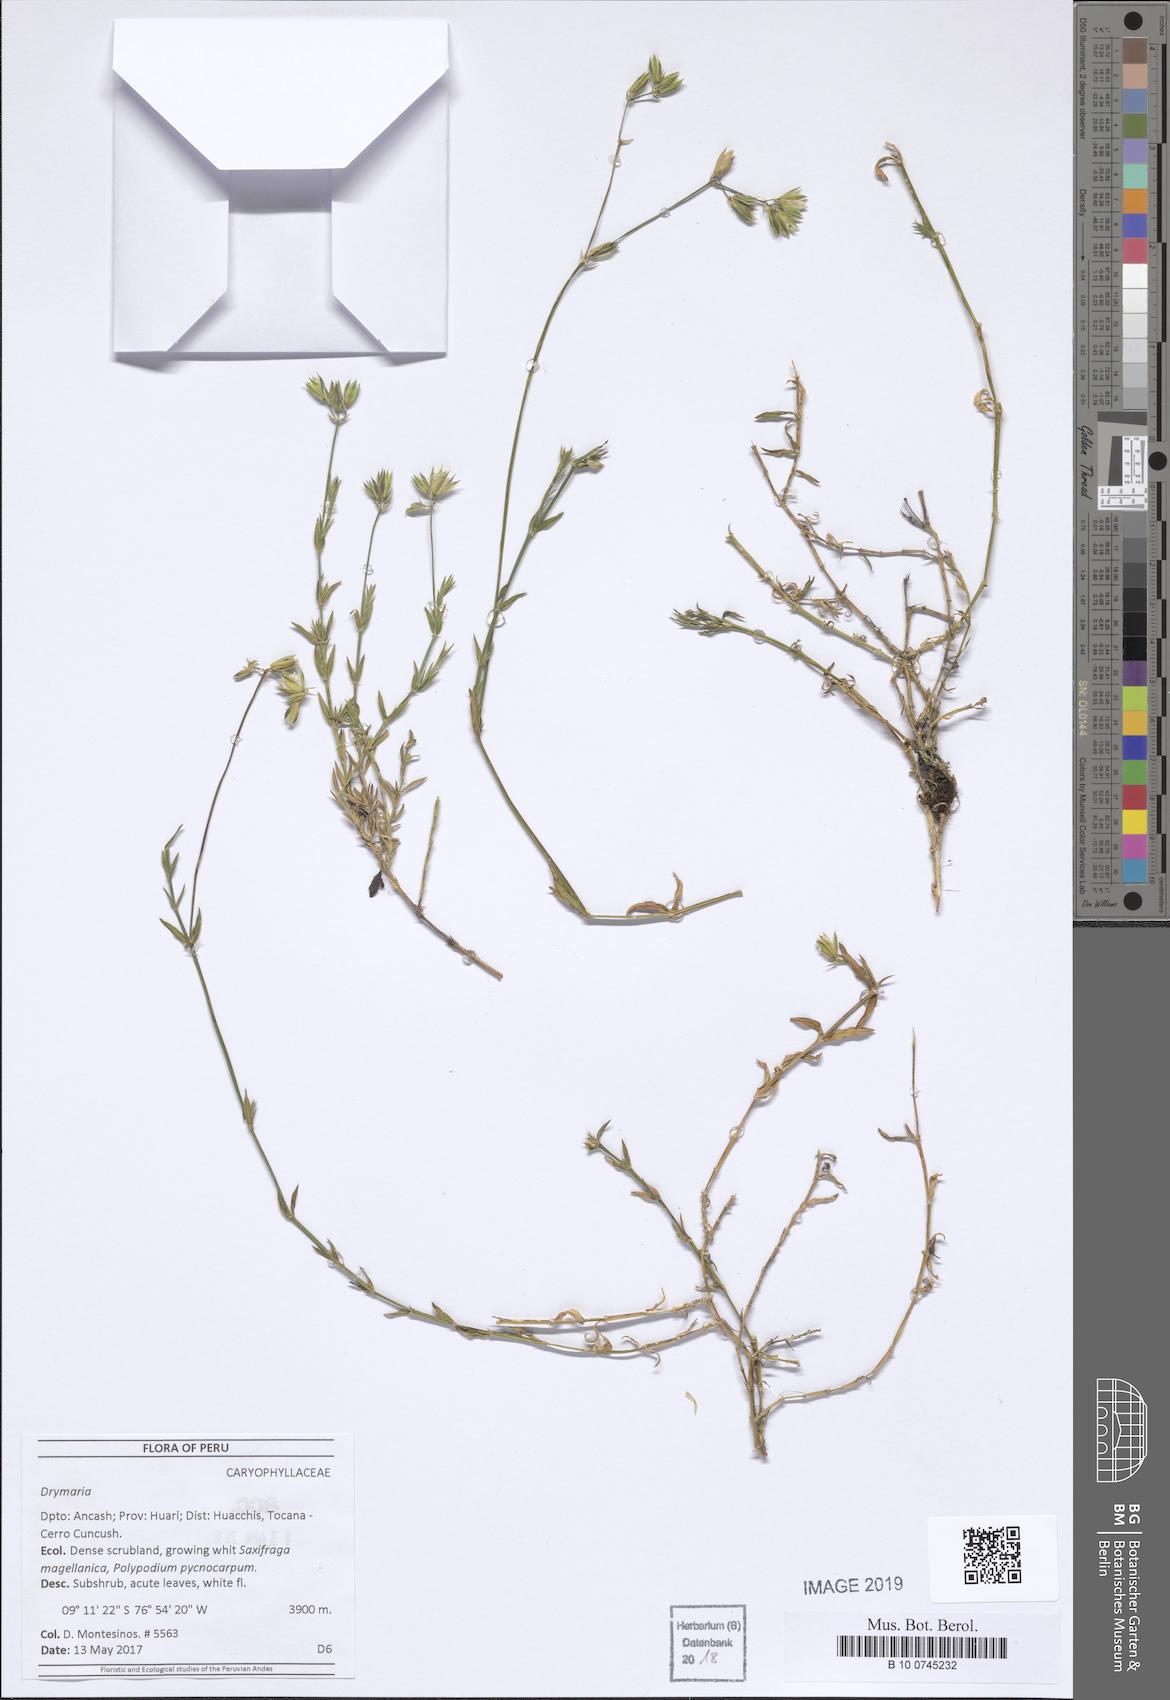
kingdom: Plantae
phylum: Tracheophyta
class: Magnoliopsida
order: Caryophyllales
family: Caryophyllaceae
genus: Drymaria
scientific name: Drymaria
